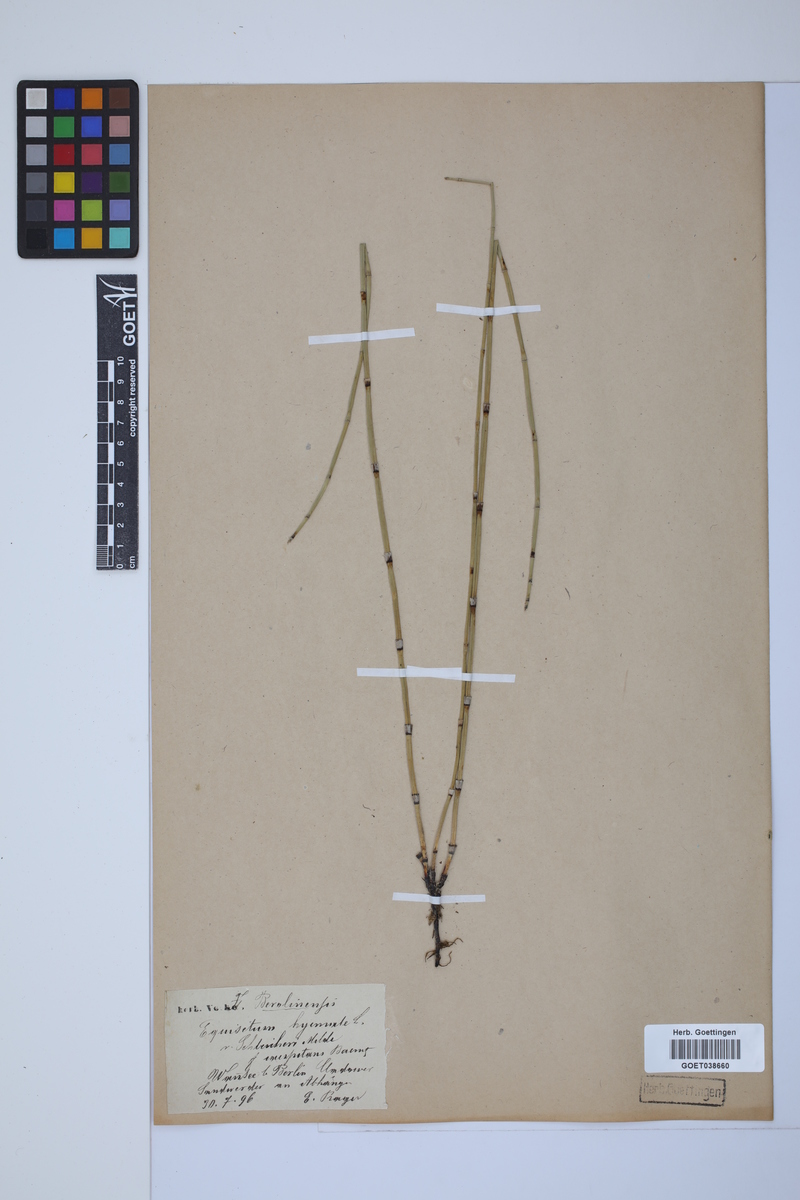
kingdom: Plantae
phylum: Tracheophyta
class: Polypodiopsida
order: Equisetales
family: Equisetaceae
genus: Equisetum
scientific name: Equisetum hyemale
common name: Rough horsetail
